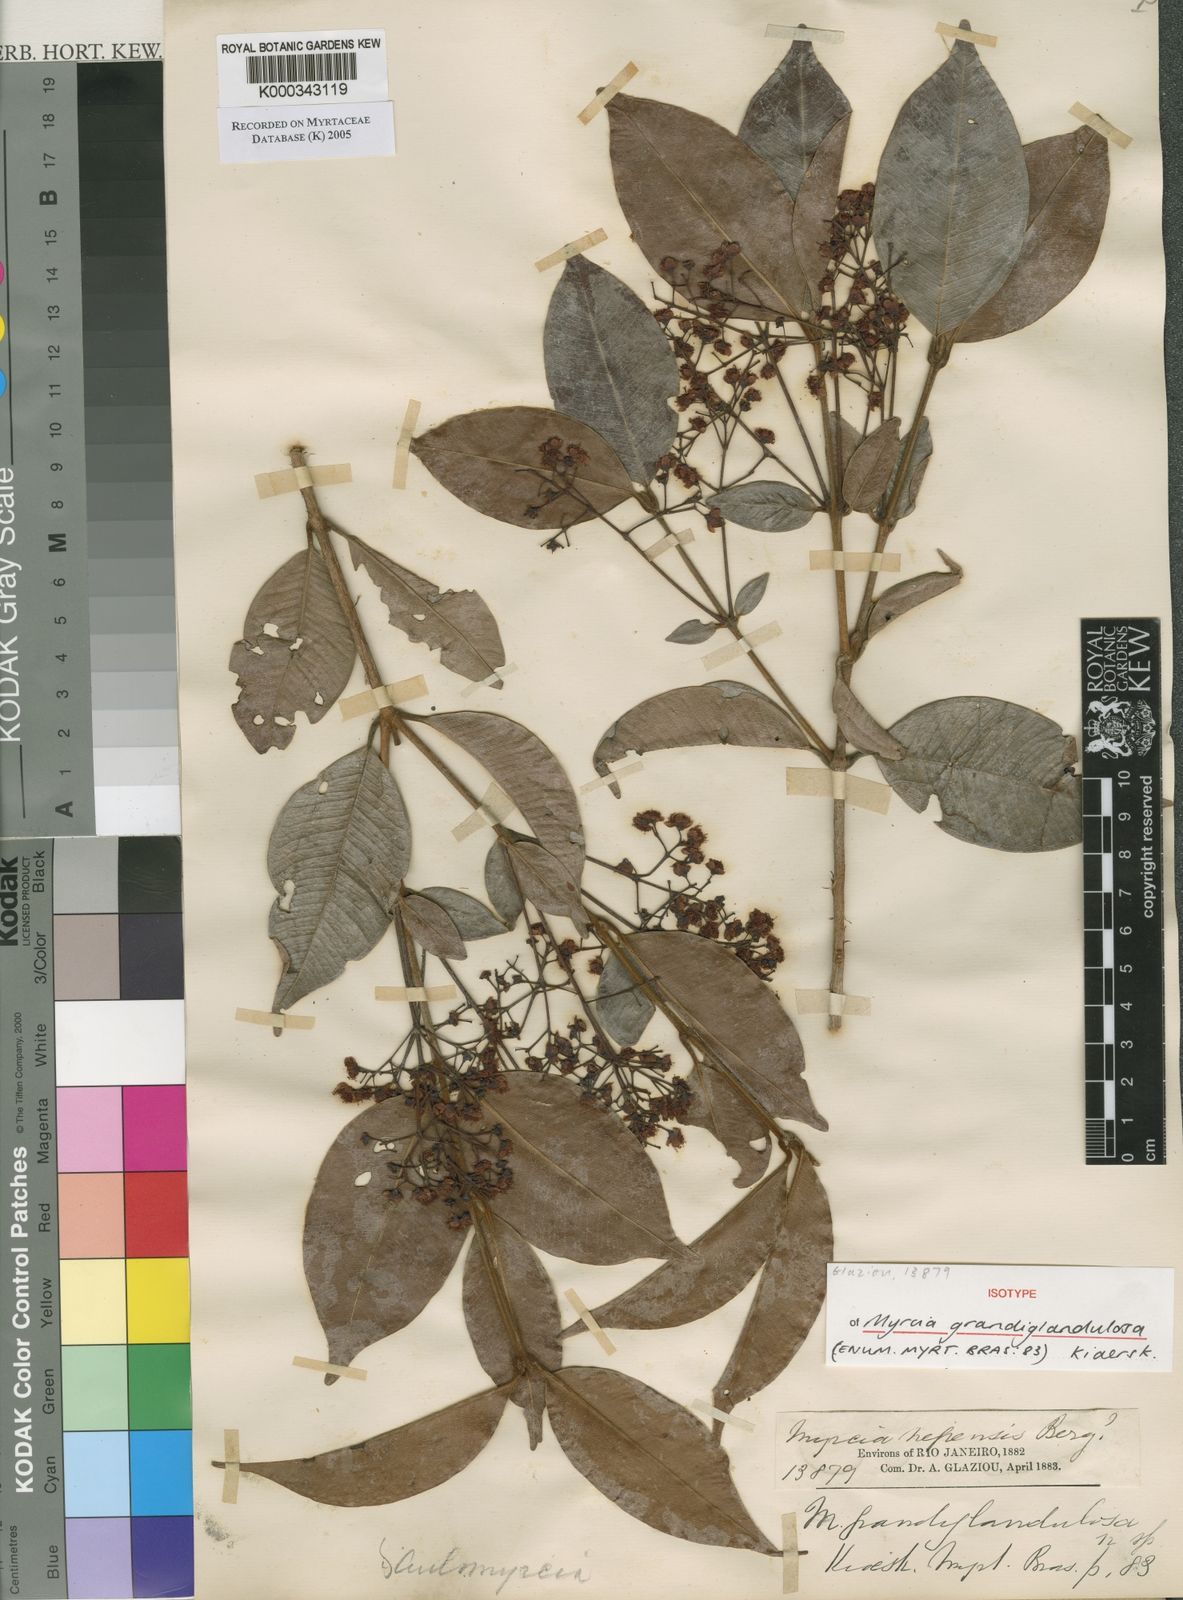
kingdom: Plantae
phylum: Tracheophyta
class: Magnoliopsida
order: Myrtales
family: Myrtaceae
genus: Myrcia
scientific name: Myrcia aethusa
